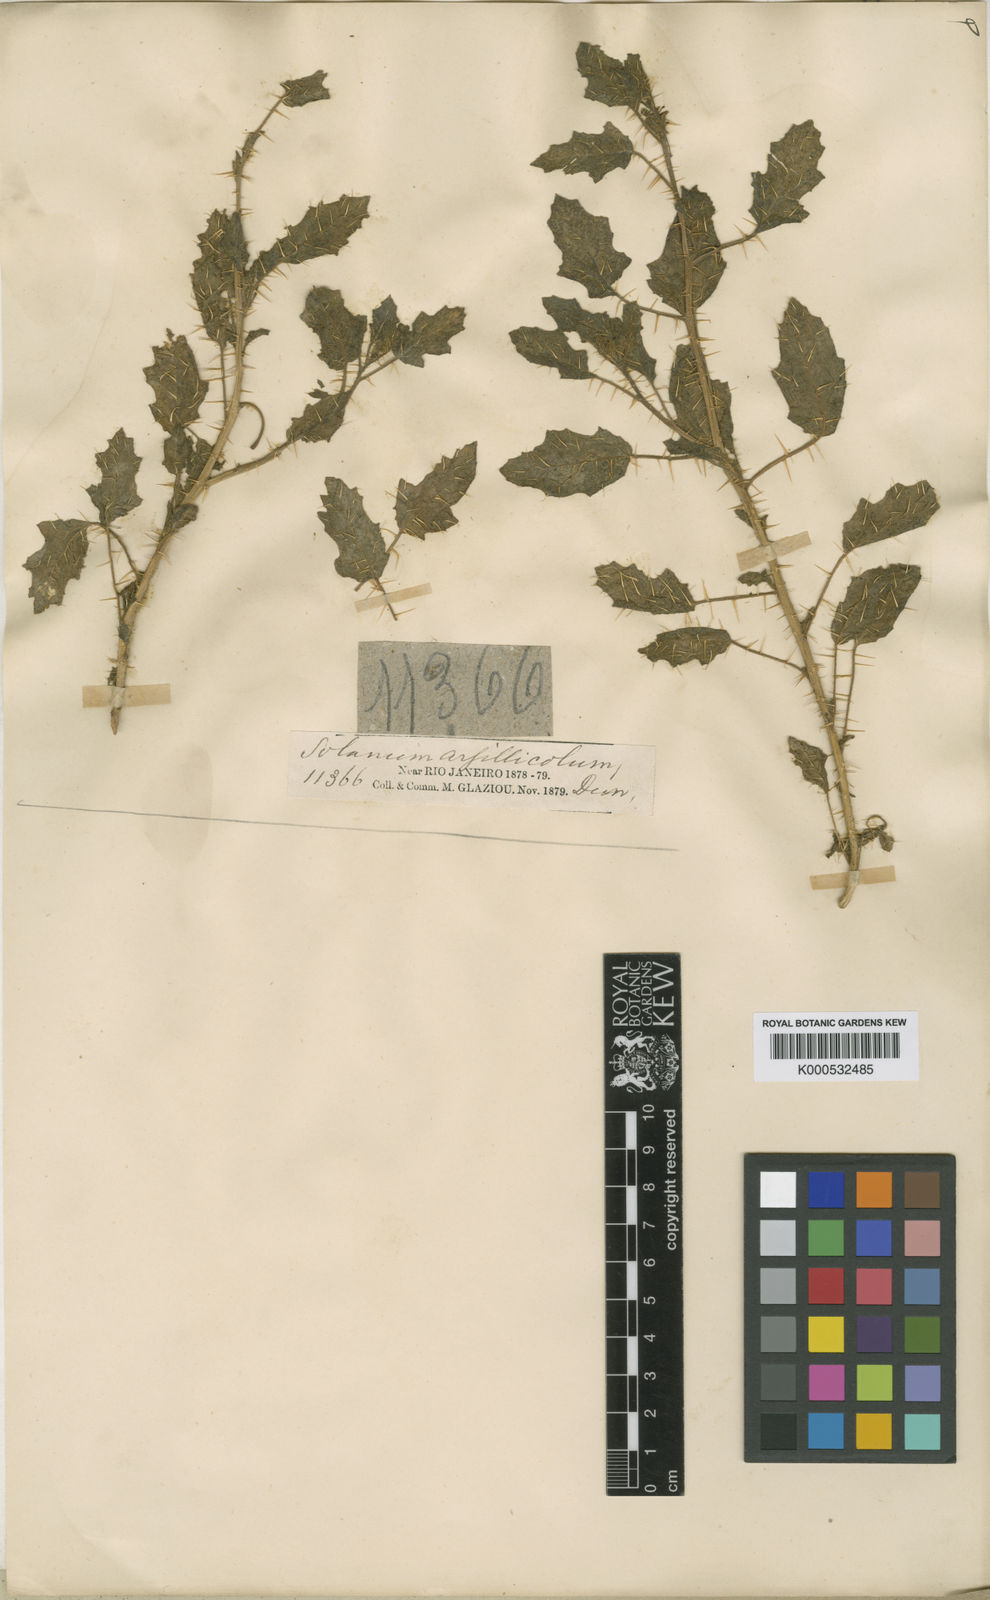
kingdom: Plantae
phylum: Tracheophyta
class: Magnoliopsida
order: Solanales
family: Solanaceae
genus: Solanum
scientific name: Solanum agrarium
